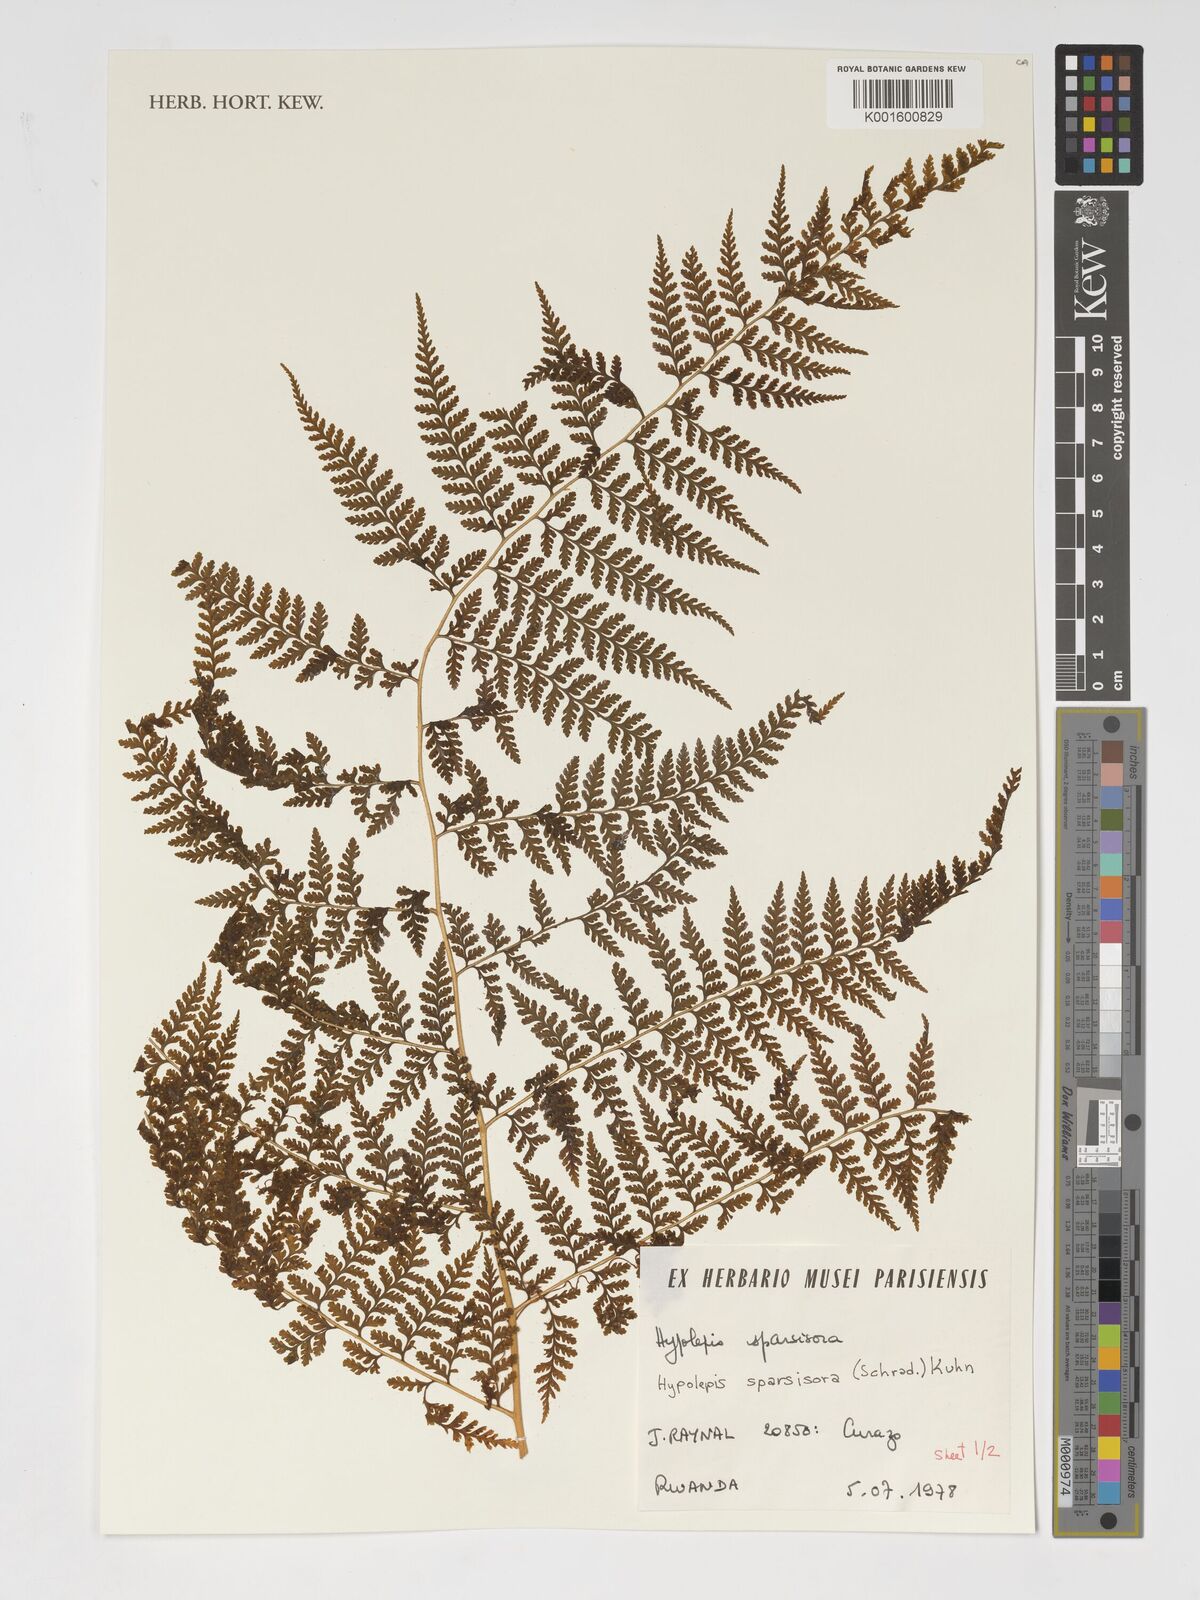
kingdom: Plantae
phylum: Tracheophyta
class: Polypodiopsida
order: Polypodiales
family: Dennstaedtiaceae
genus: Hypolepis
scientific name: Hypolepis sparsisora
